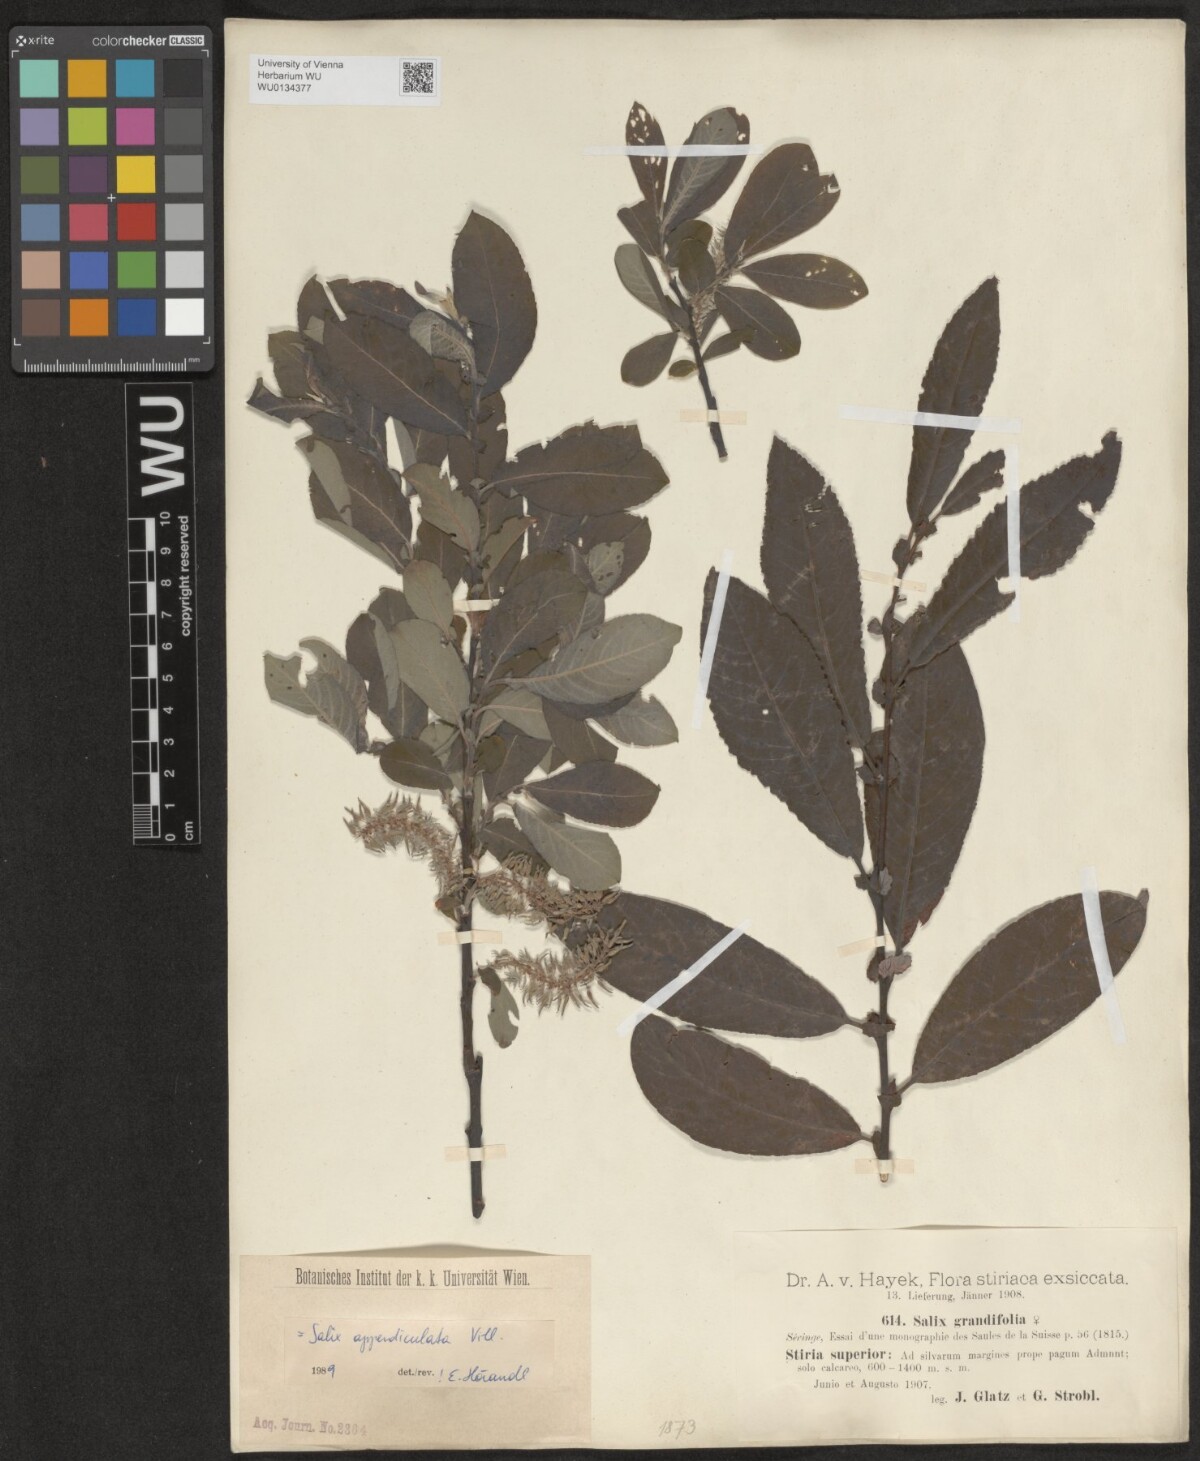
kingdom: Plantae
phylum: Tracheophyta
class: Magnoliopsida
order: Malpighiales
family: Salicaceae
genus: Salix
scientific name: Salix appendiculata
